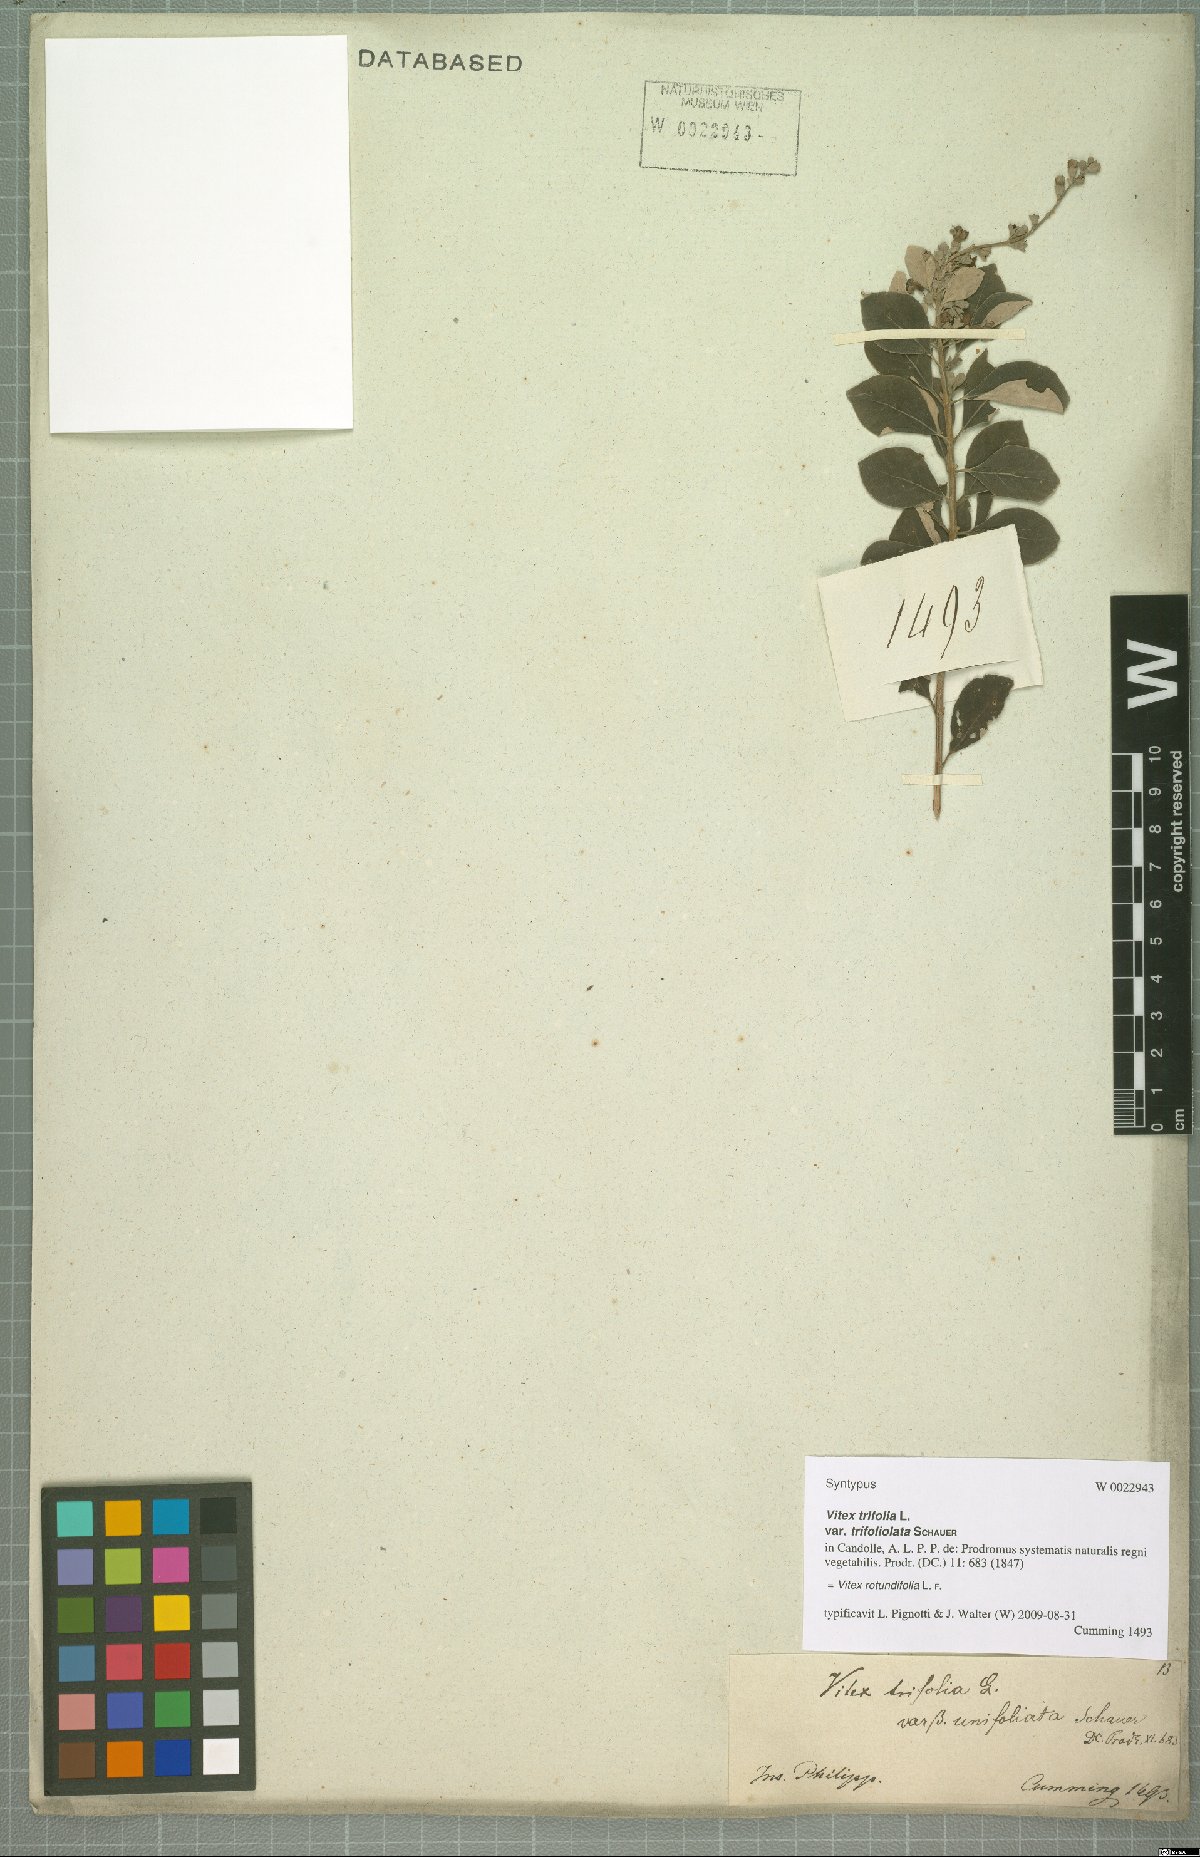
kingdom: Plantae
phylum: Tracheophyta
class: Magnoliopsida
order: Lamiales
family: Lamiaceae
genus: Vitex
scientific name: Vitex rotundifolia
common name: Beach vitex
